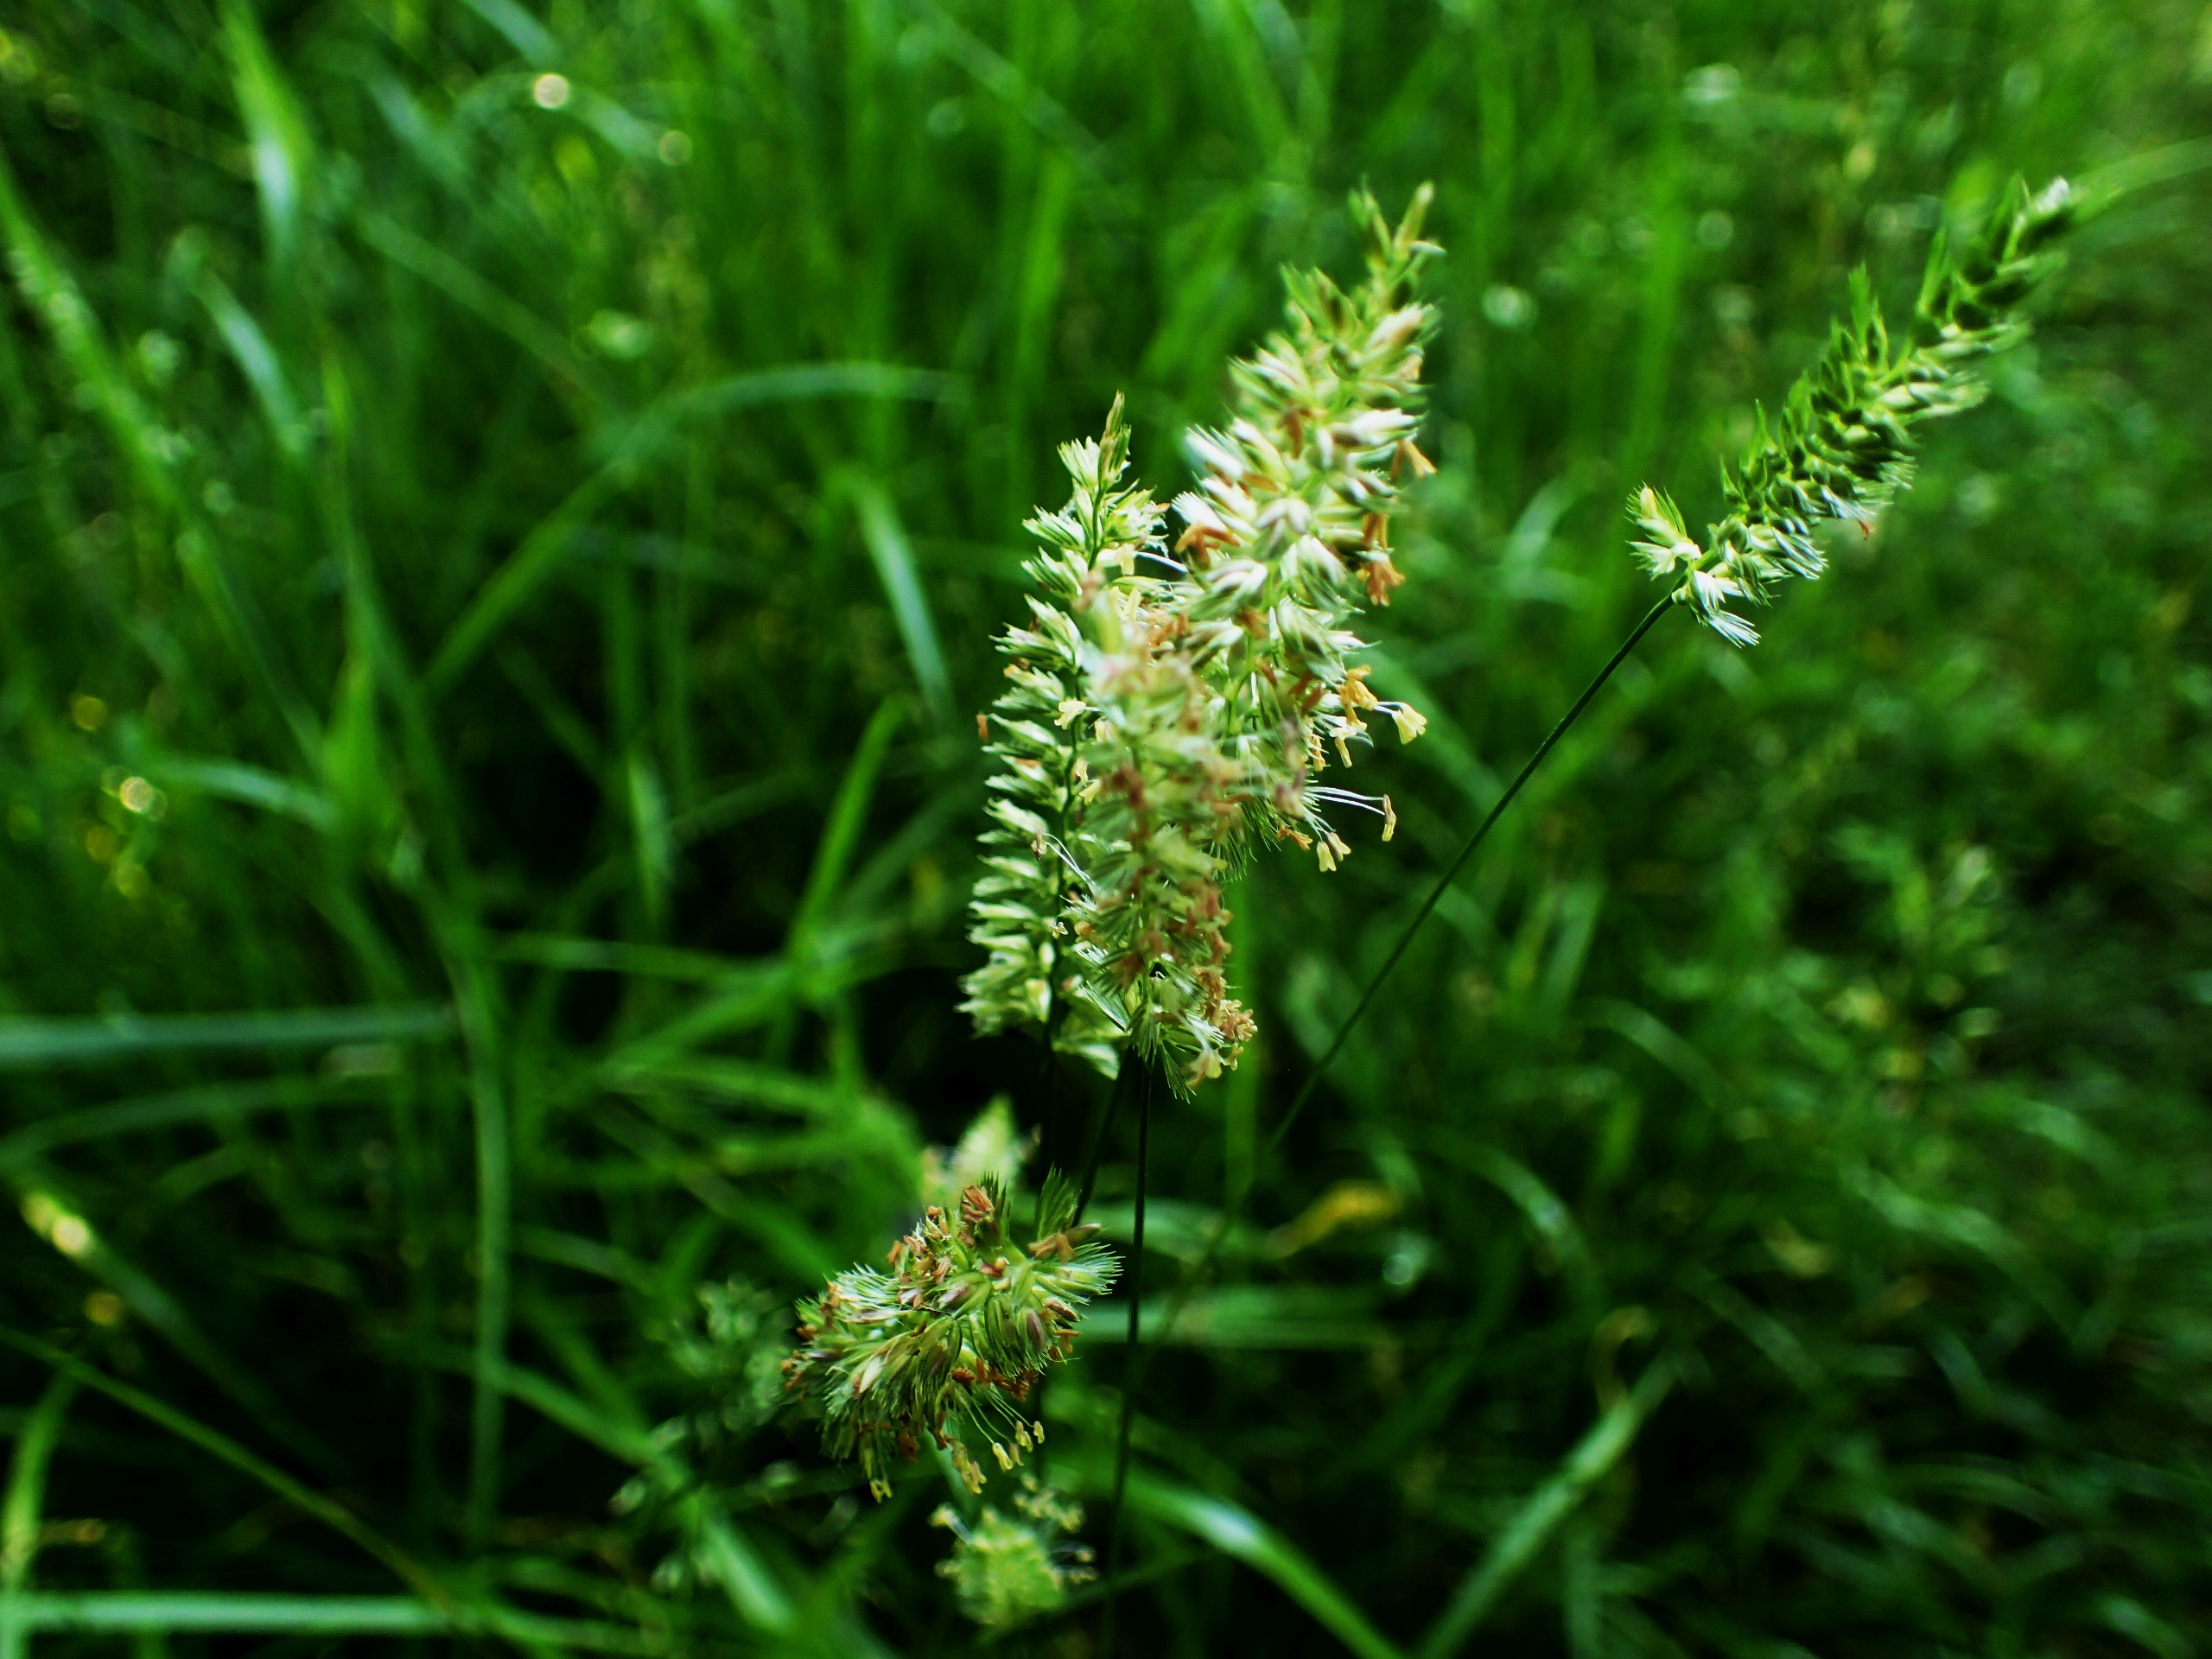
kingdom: Plantae
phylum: Tracheophyta
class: Liliopsida
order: Poales
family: Poaceae
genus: Cynosurus
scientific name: Cynosurus cristatus
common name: Kamgræs
